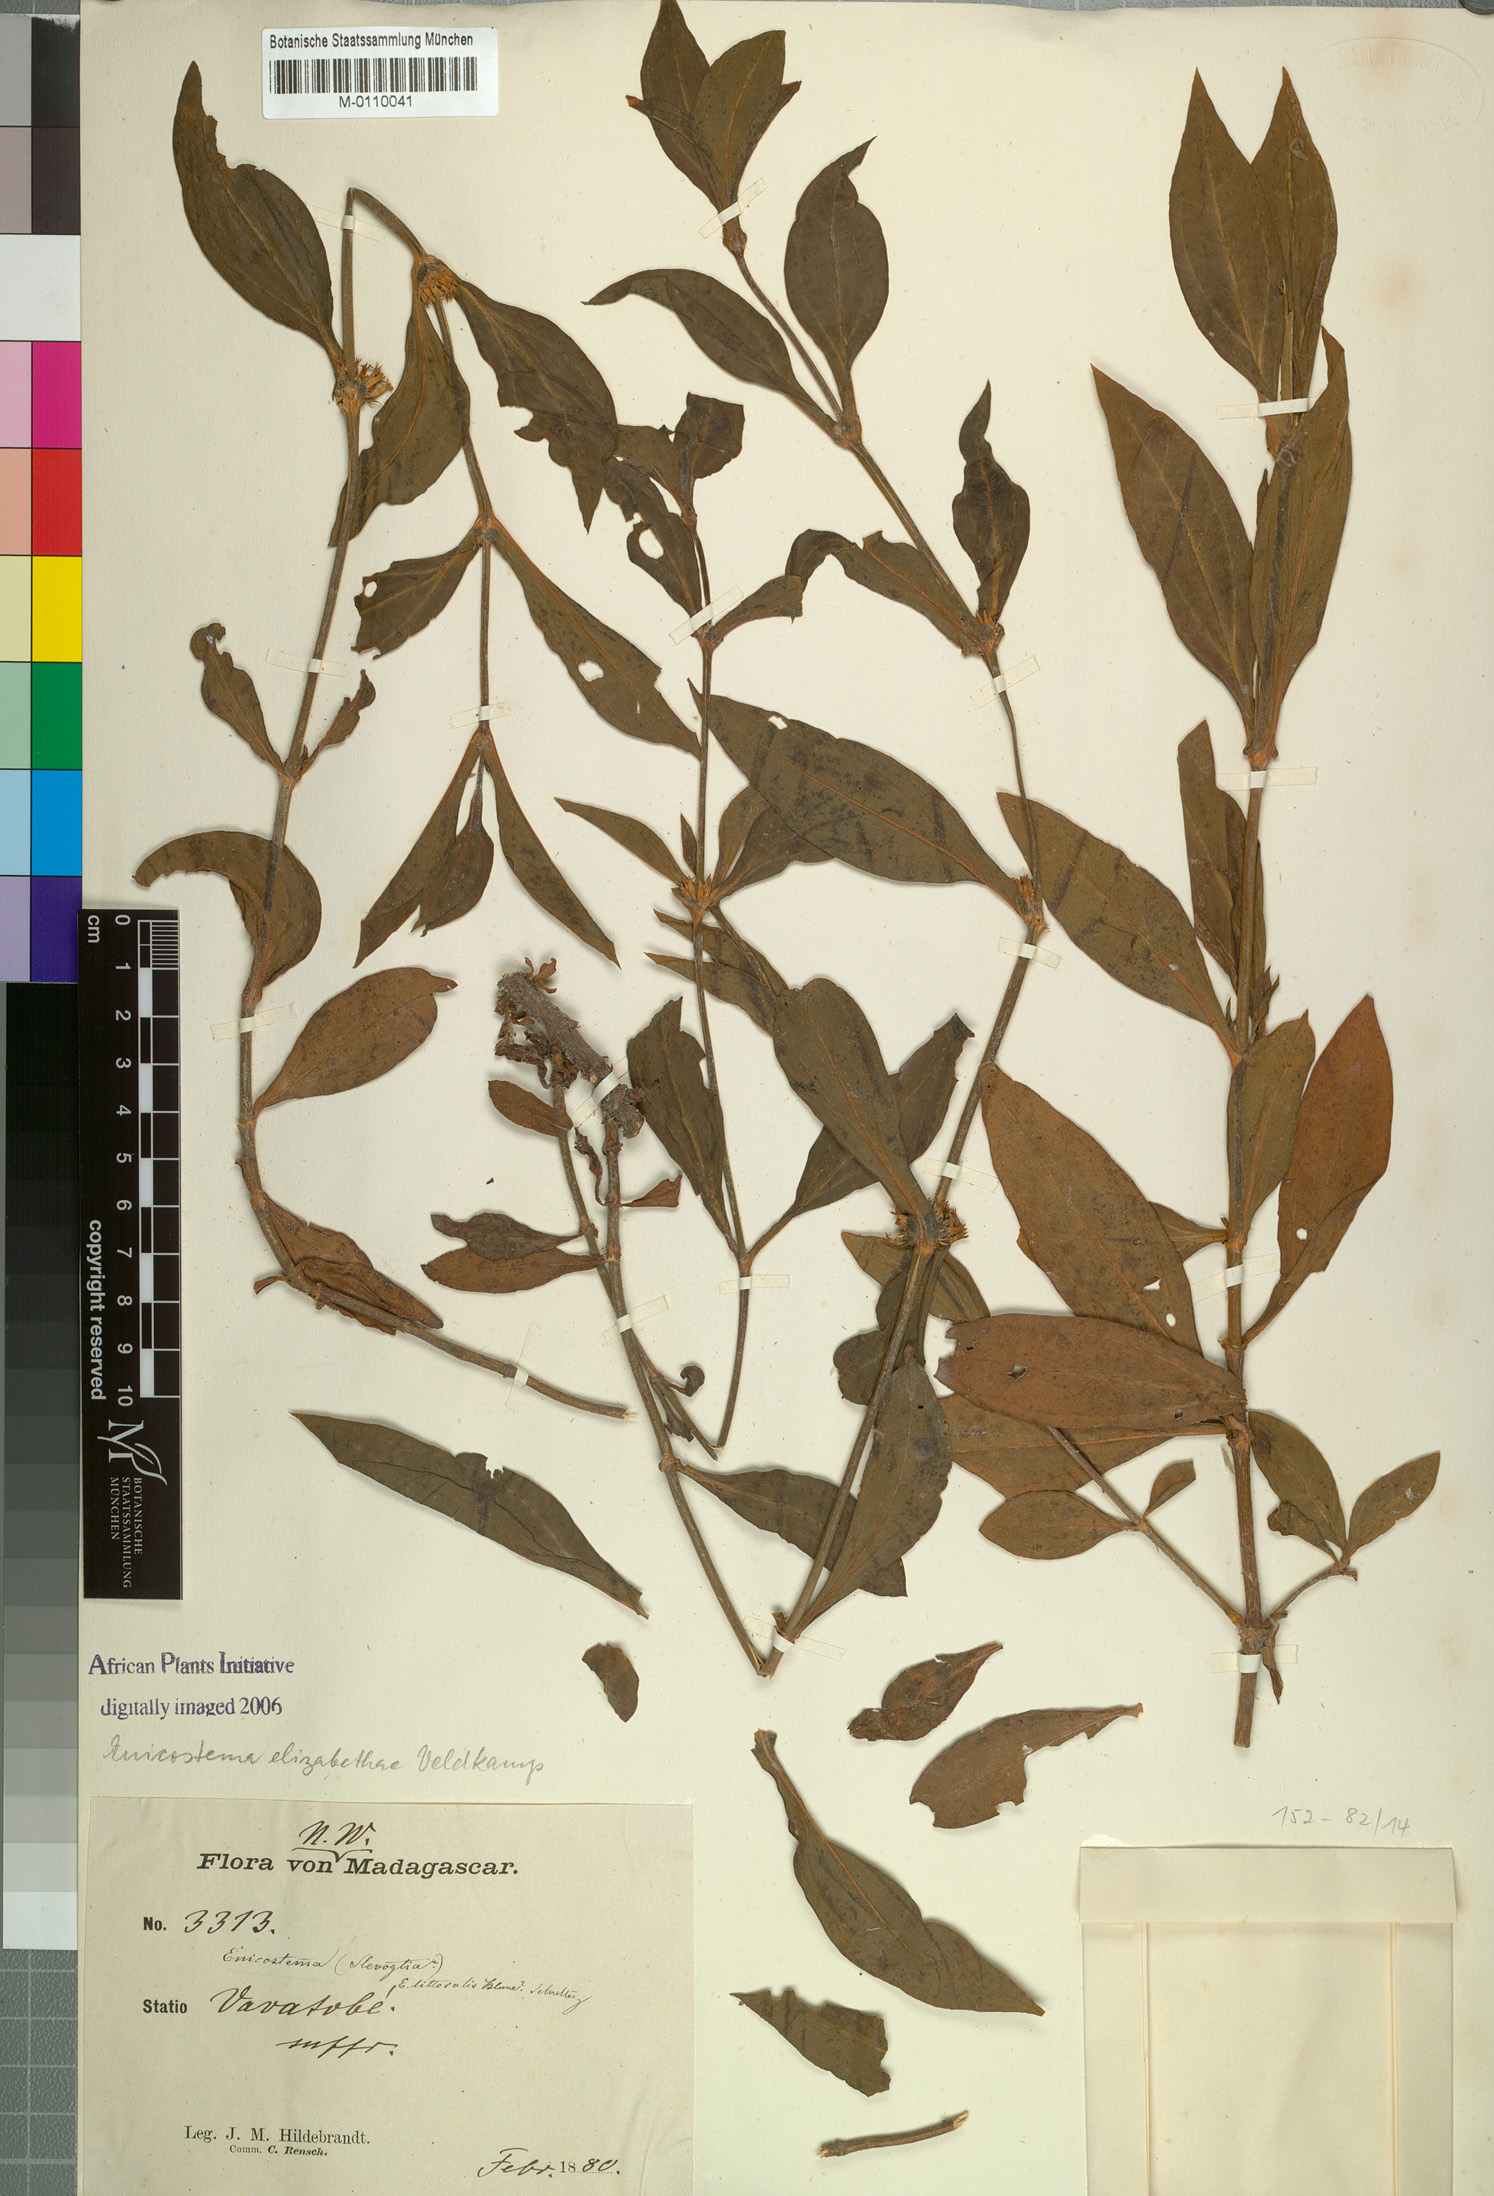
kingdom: Plantae
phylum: Tracheophyta
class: Magnoliopsida
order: Gentianales
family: Gentianaceae
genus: Enicostema
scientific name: Enicostema elizabethae
